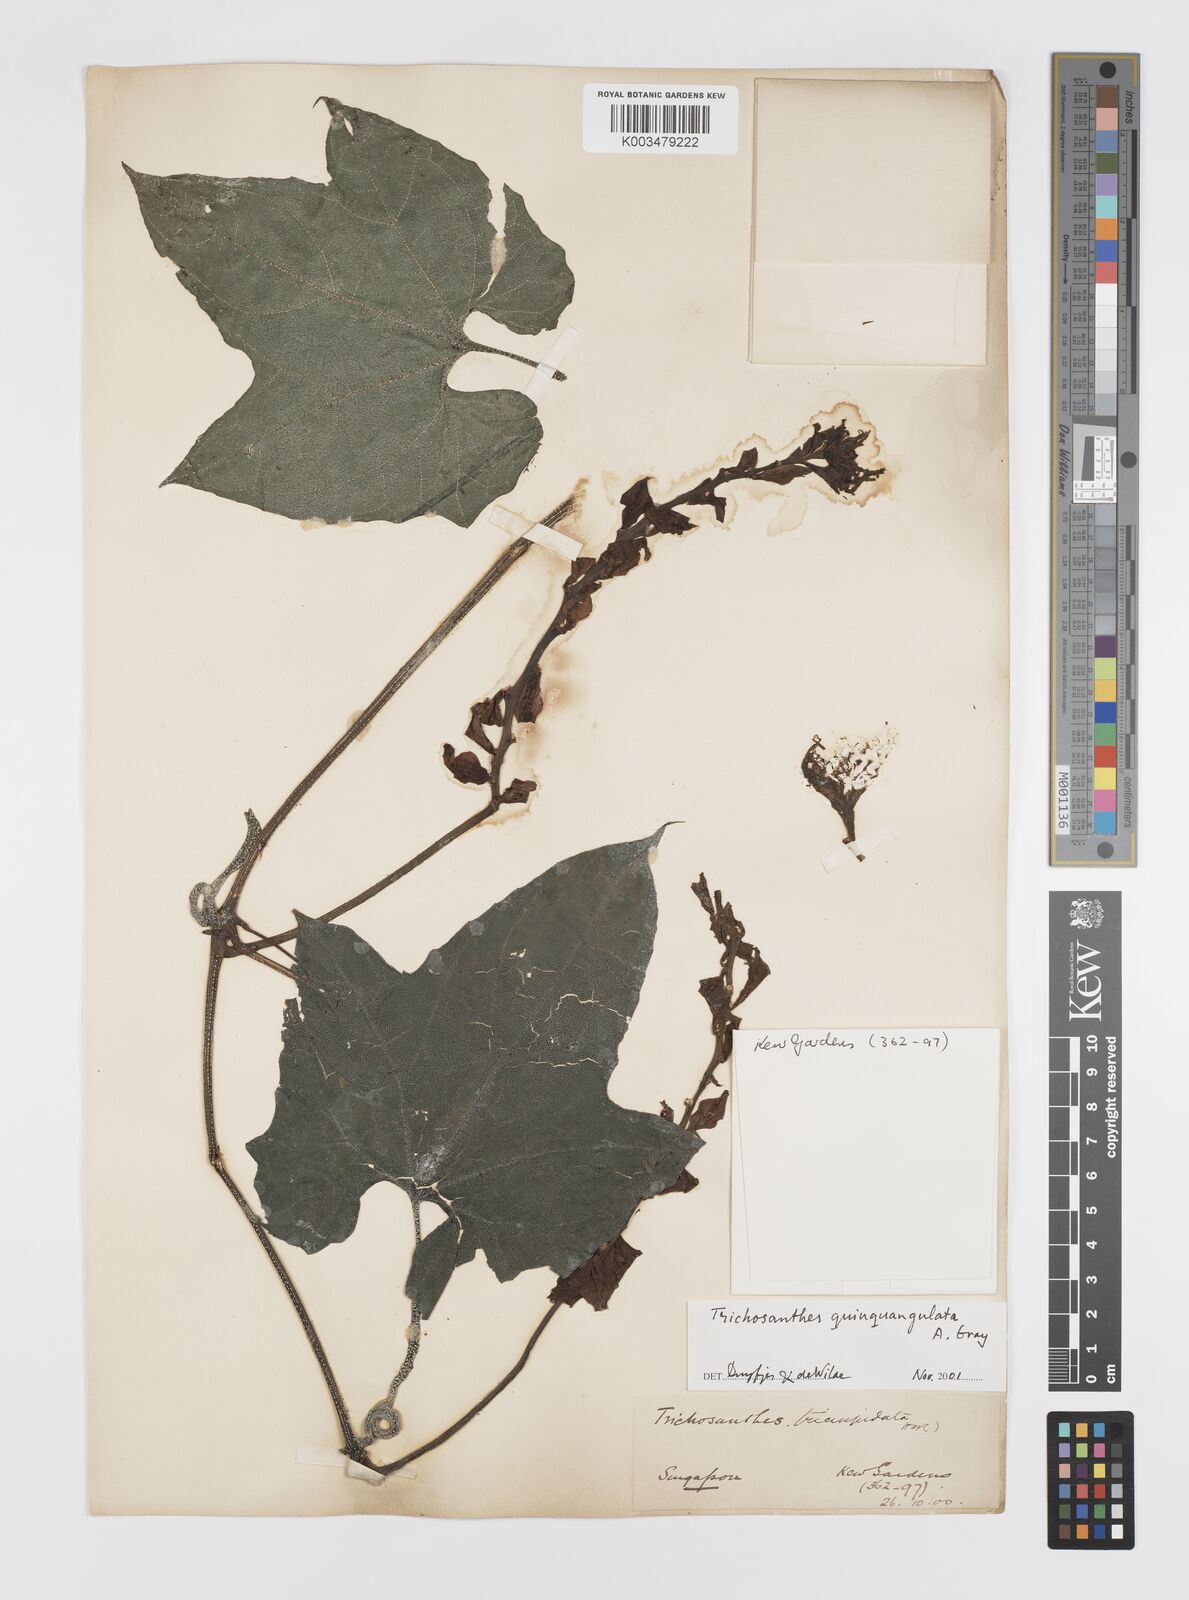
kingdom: Plantae
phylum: Tracheophyta
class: Magnoliopsida
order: Cucurbitales
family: Cucurbitaceae
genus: Trichosanthes
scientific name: Trichosanthes quinquangulata
